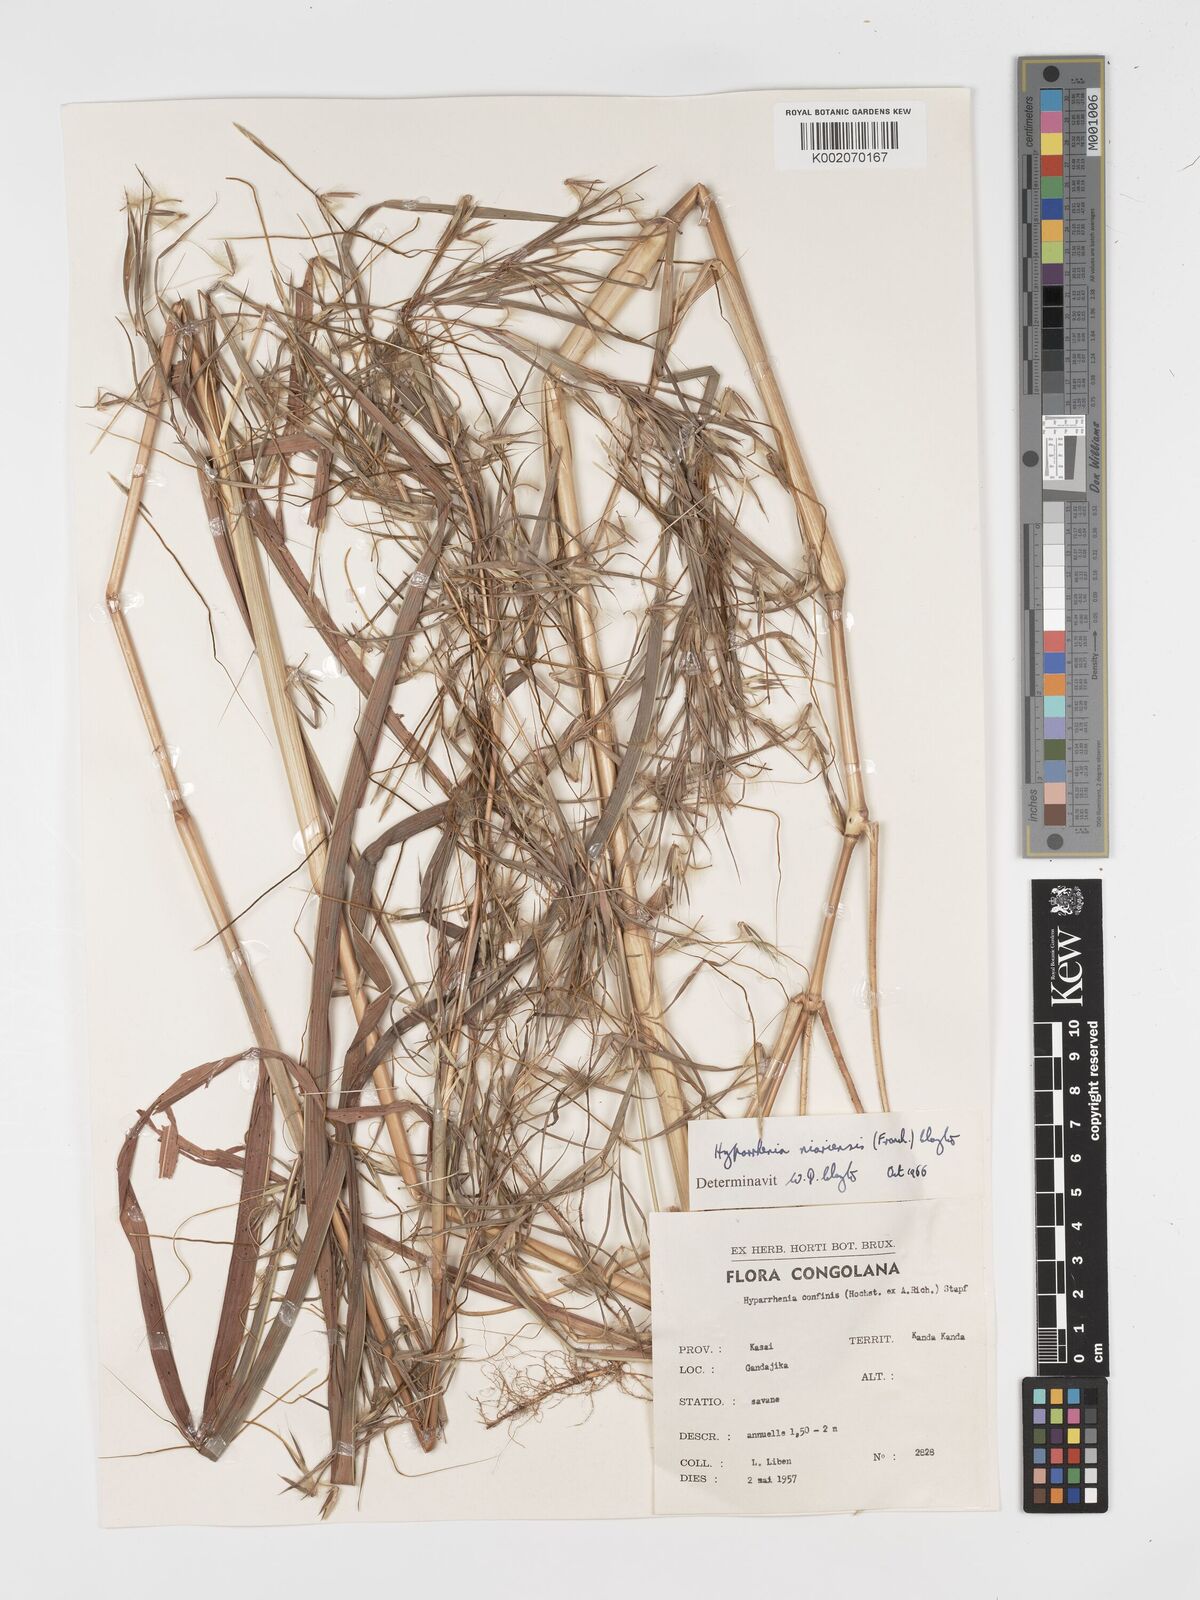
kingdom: Plantae
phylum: Tracheophyta
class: Liliopsida
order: Poales
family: Poaceae
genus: Hyparrhenia
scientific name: Hyparrhenia niariensis
